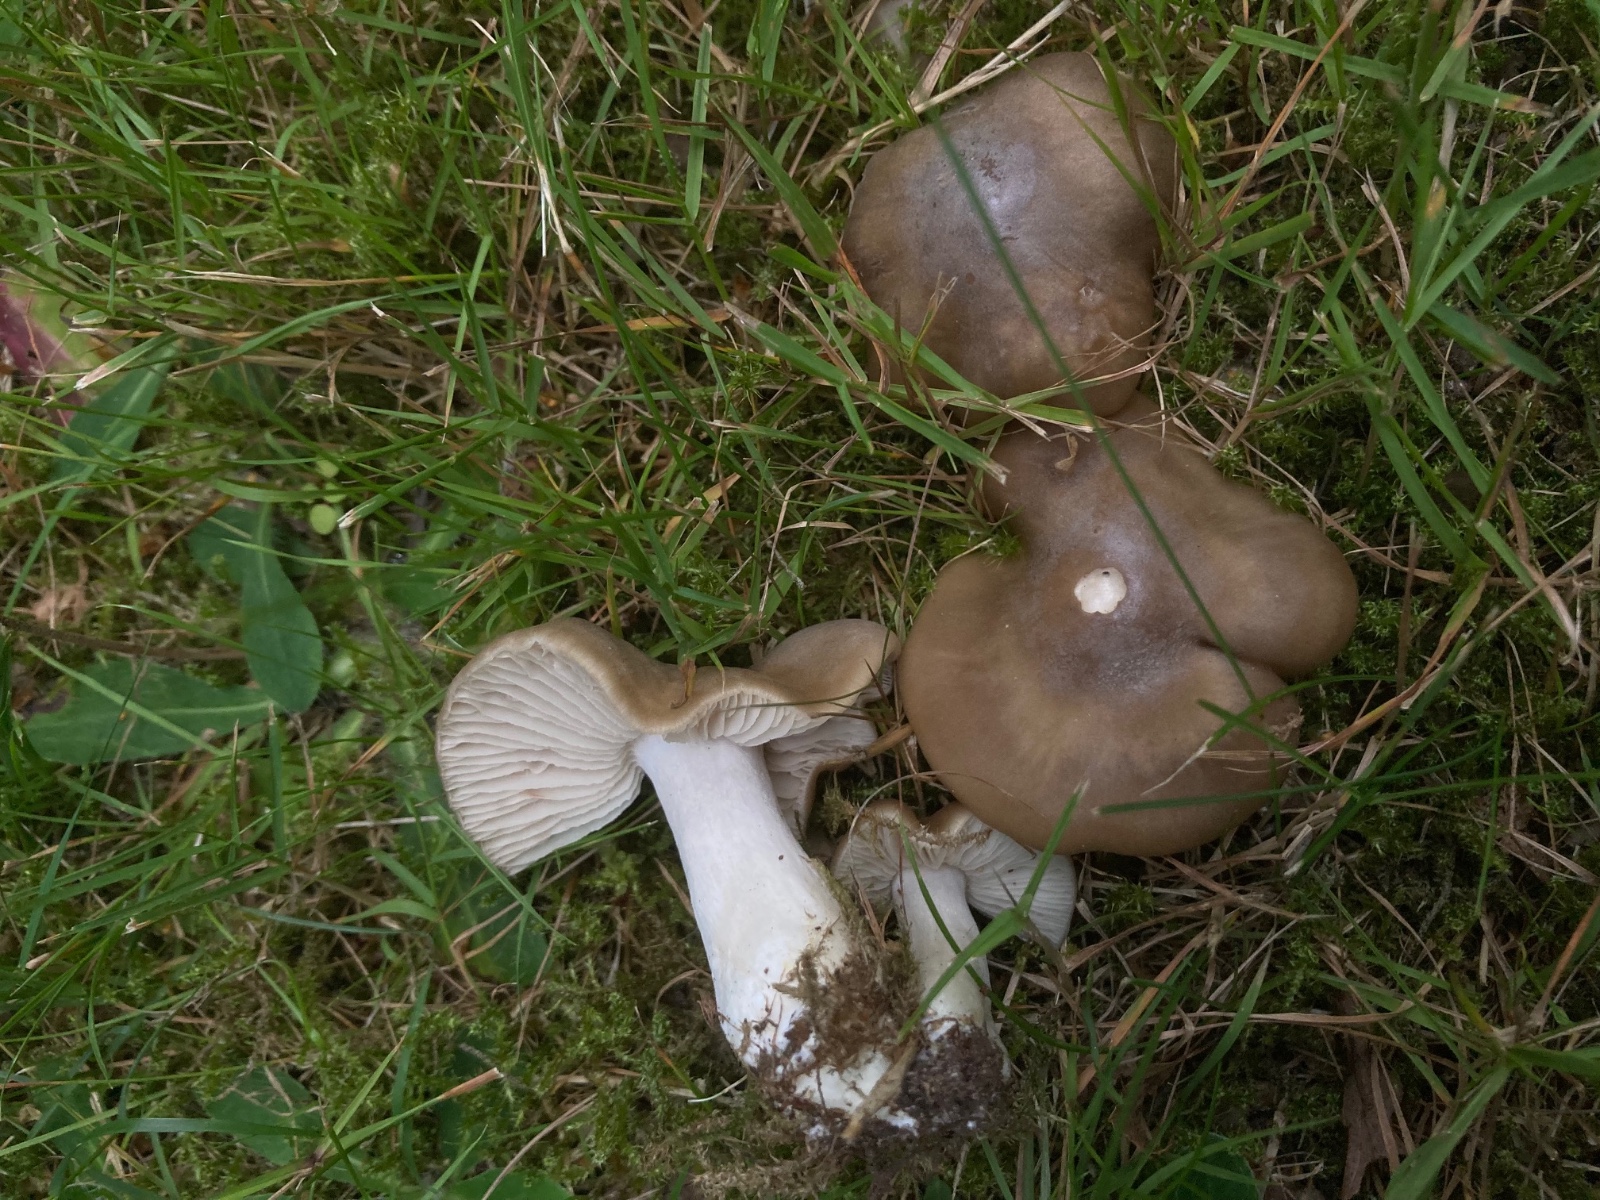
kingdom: Fungi
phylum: Basidiomycota
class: Agaricomycetes
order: Agaricales
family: Entolomataceae
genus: Entoloma
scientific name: Entoloma lividoalbum
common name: lysstokket rødblad
